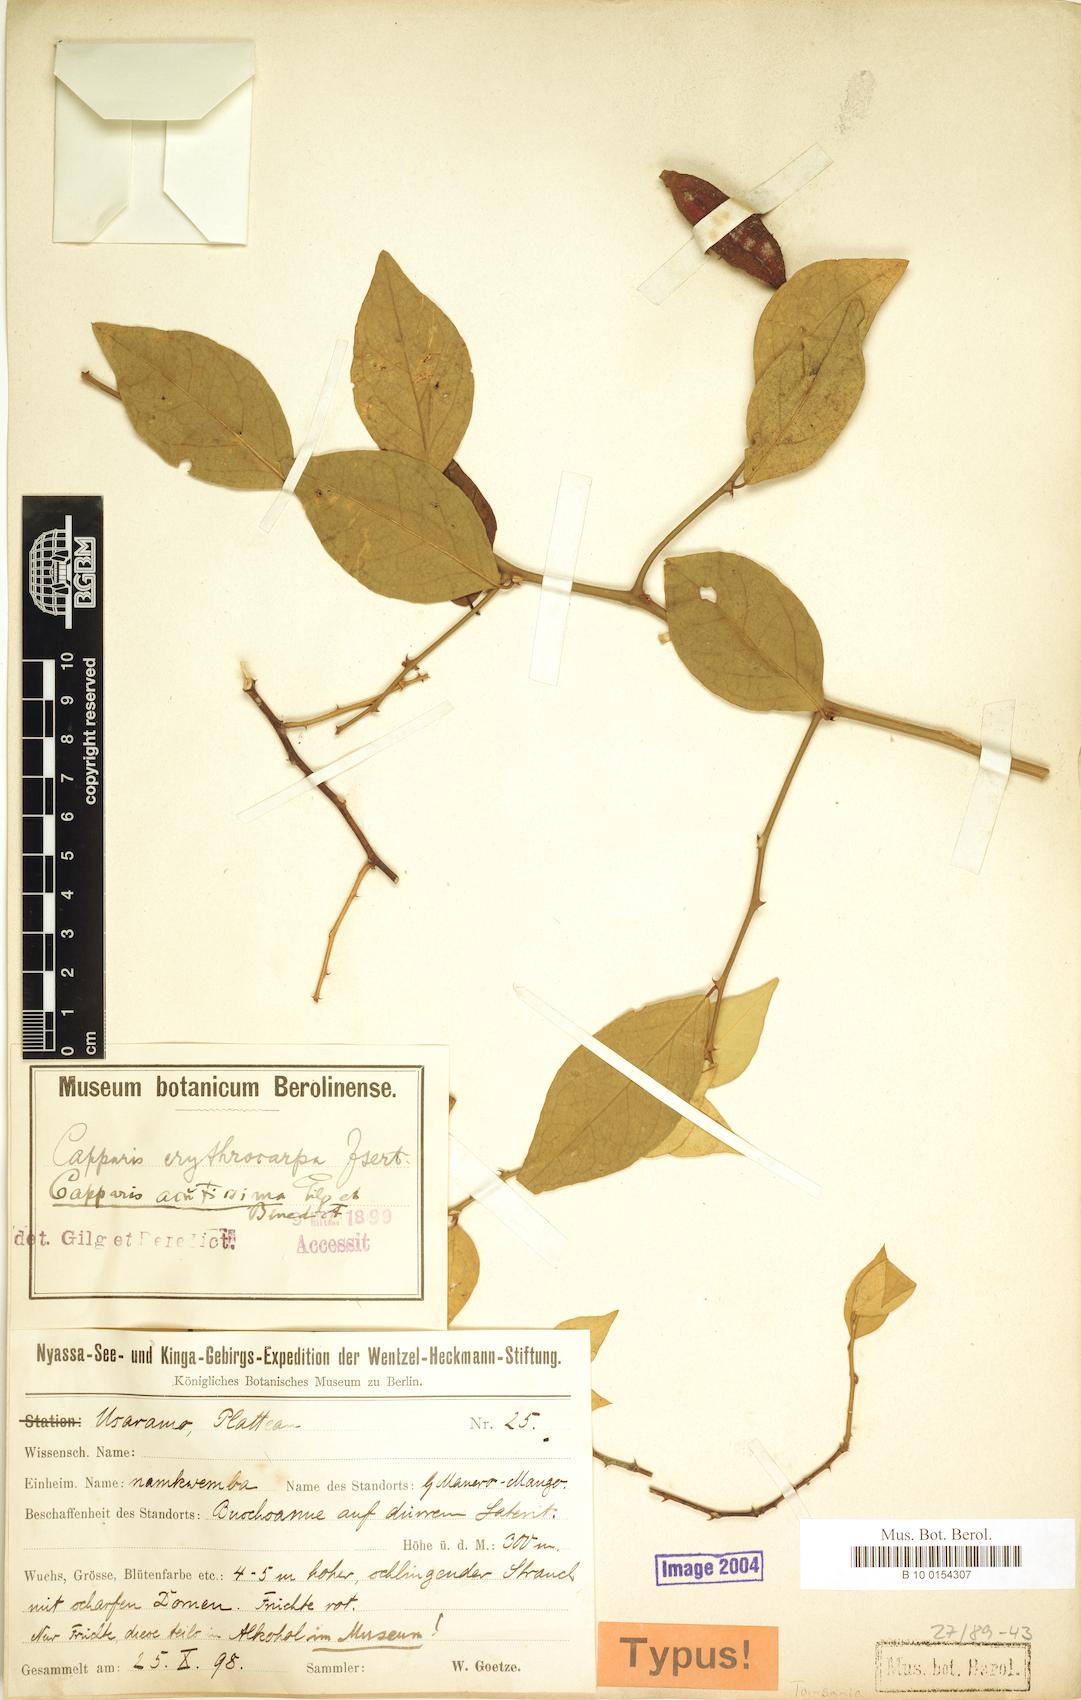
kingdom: Plantae
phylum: Tracheophyta
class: Magnoliopsida
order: Brassicales
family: Capparaceae
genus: Capparis
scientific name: Capparis erythrocarpos
